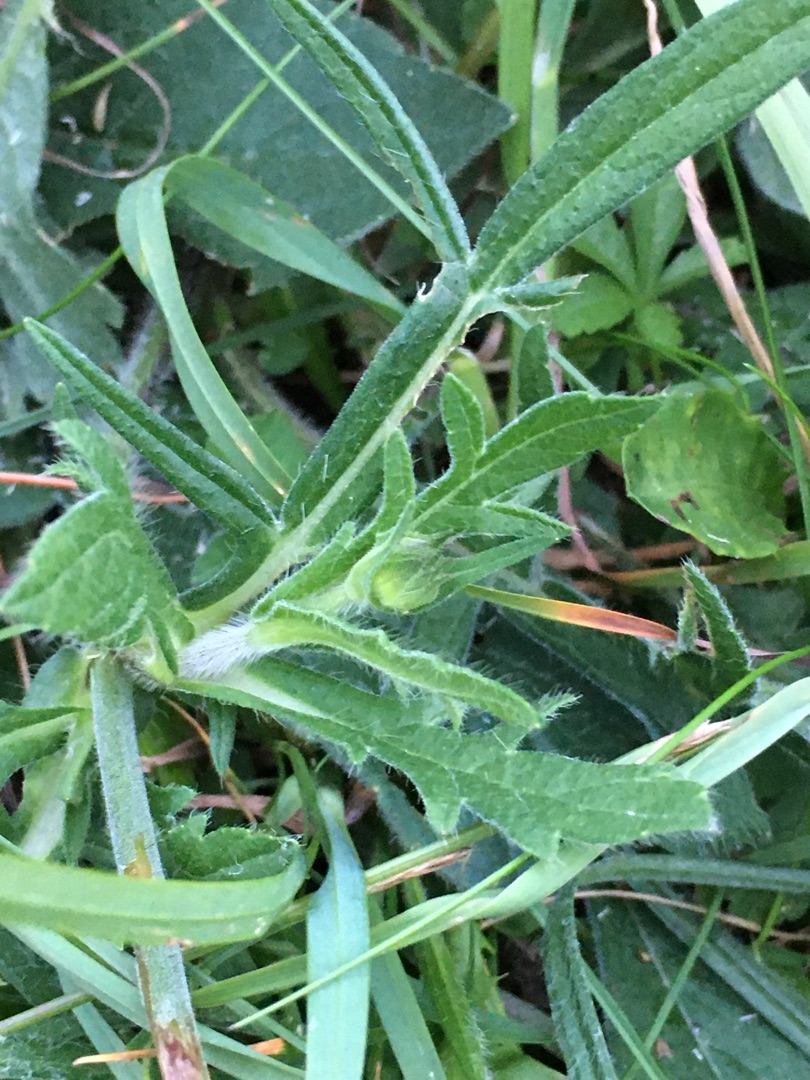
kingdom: Plantae
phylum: Tracheophyta
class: Magnoliopsida
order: Dipsacales
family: Caprifoliaceae
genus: Knautia
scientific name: Knautia arvensis
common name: Blåhat
